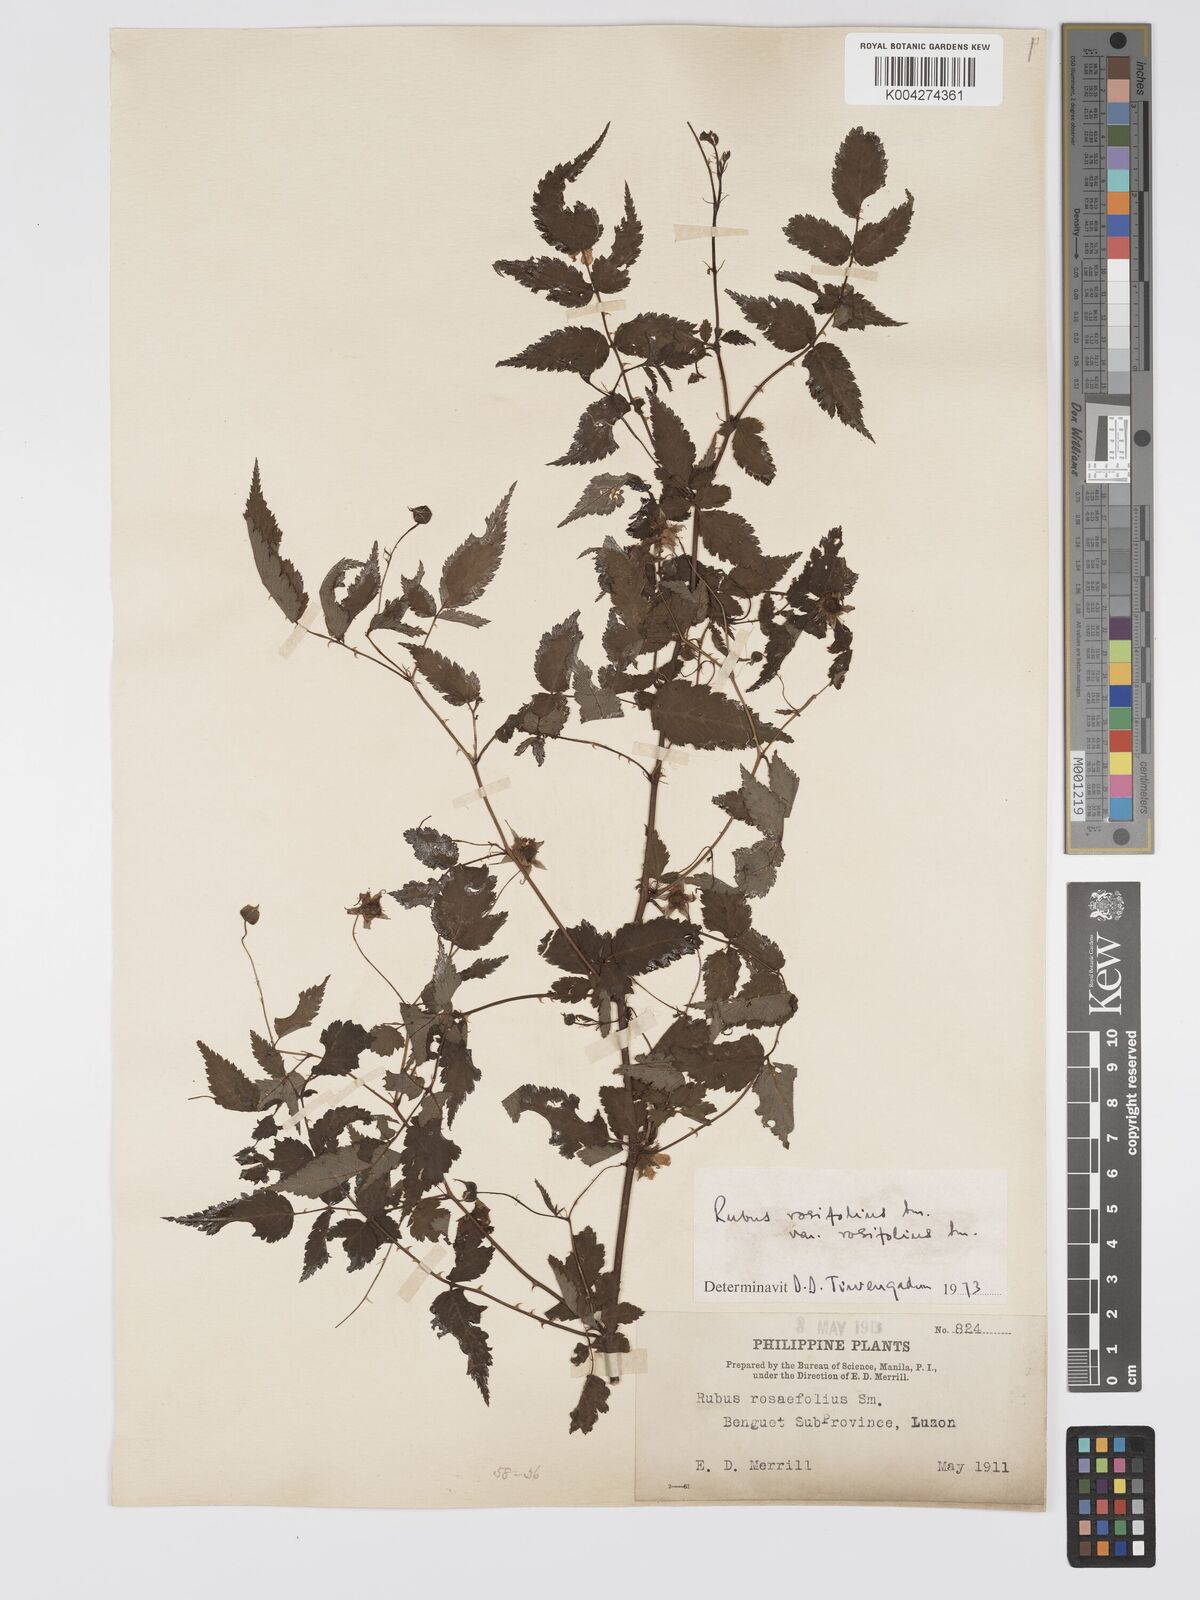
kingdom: Plantae
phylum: Tracheophyta
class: Magnoliopsida
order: Rosales
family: Rosaceae
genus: Rubus
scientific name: Rubus
